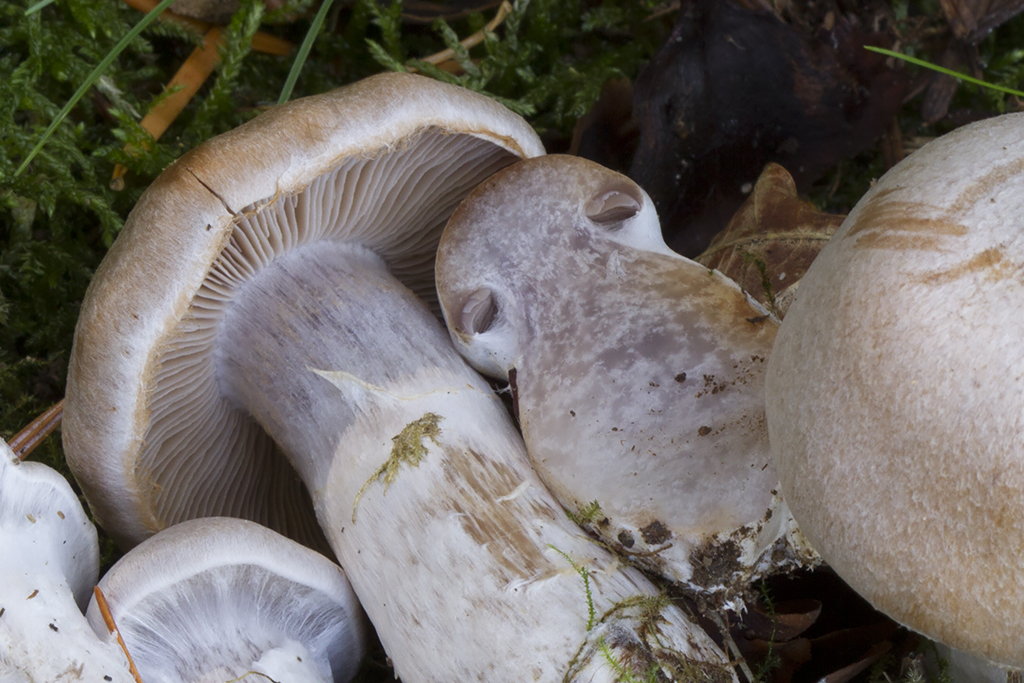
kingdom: Fungi
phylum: Basidiomycota
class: Agaricomycetes
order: Agaricales
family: Cortinariaceae
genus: Cortinarius
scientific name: Cortinarius hydrotelamonioides
